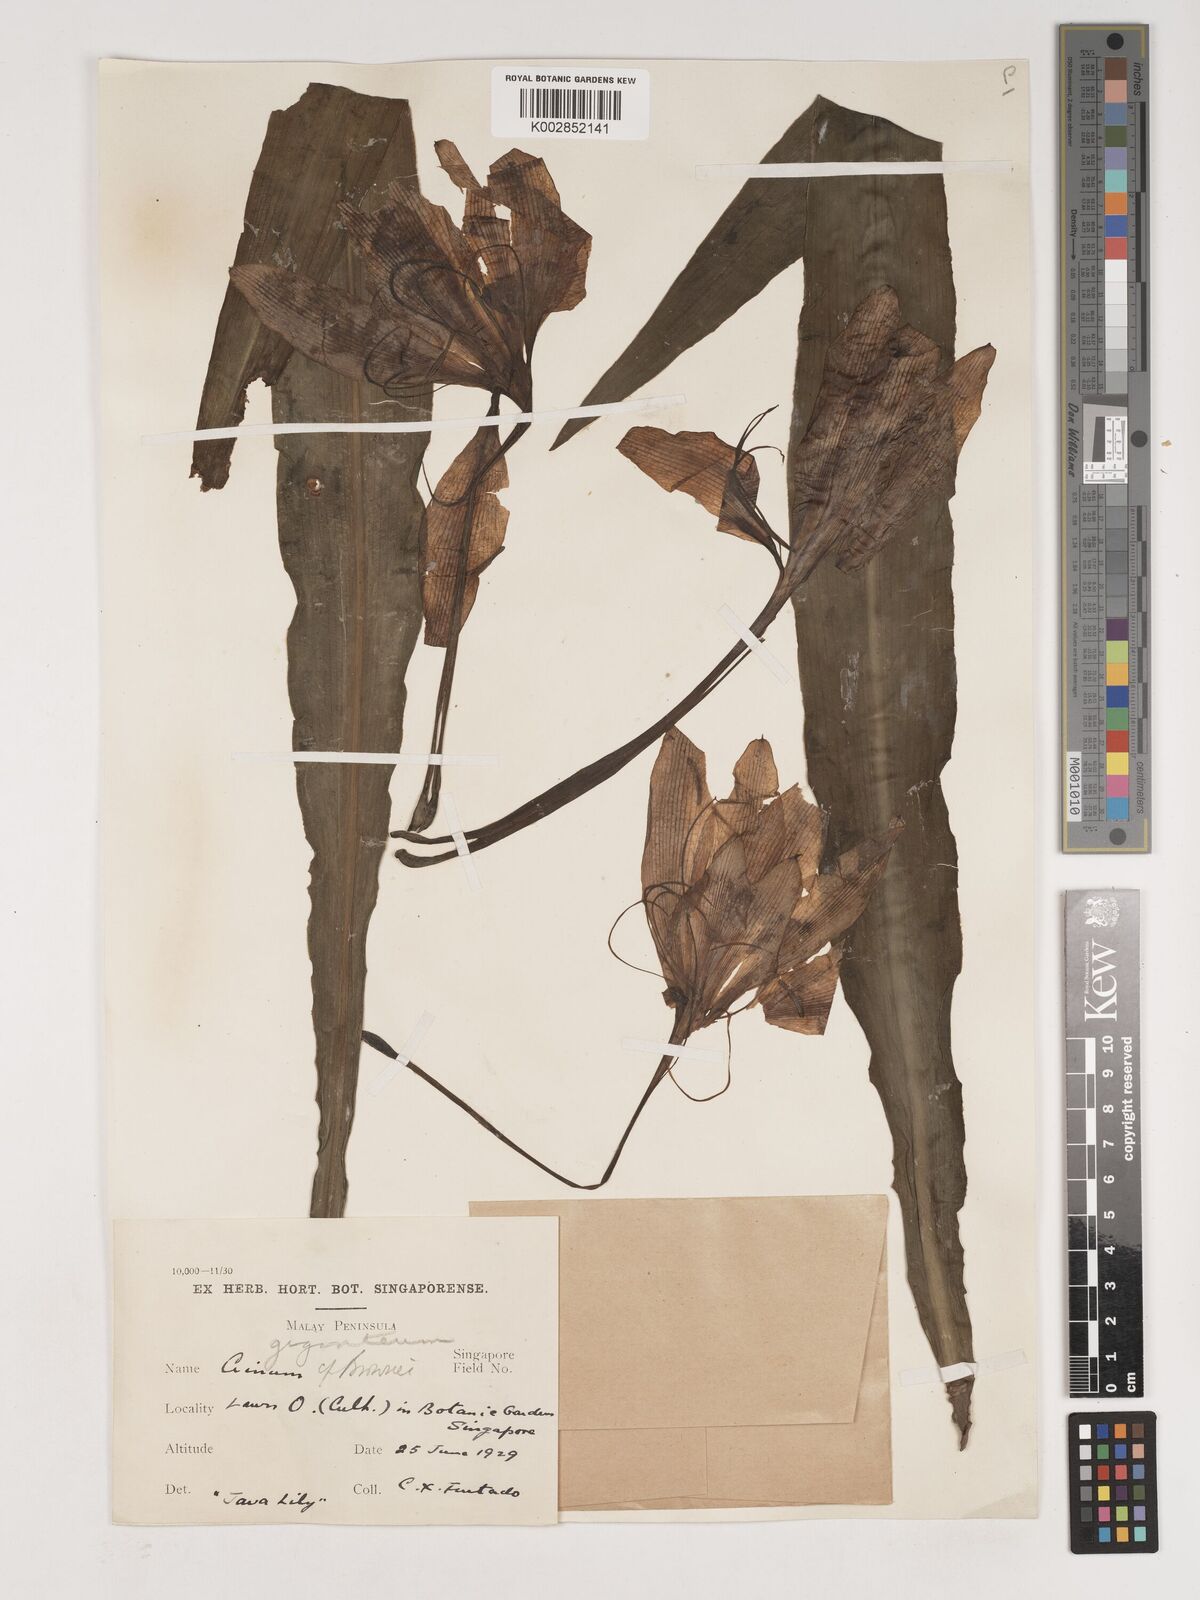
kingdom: Plantae
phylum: Tracheophyta
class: Liliopsida
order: Asparagales
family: Amaryllidaceae
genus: Crinum
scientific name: Crinum jagus
